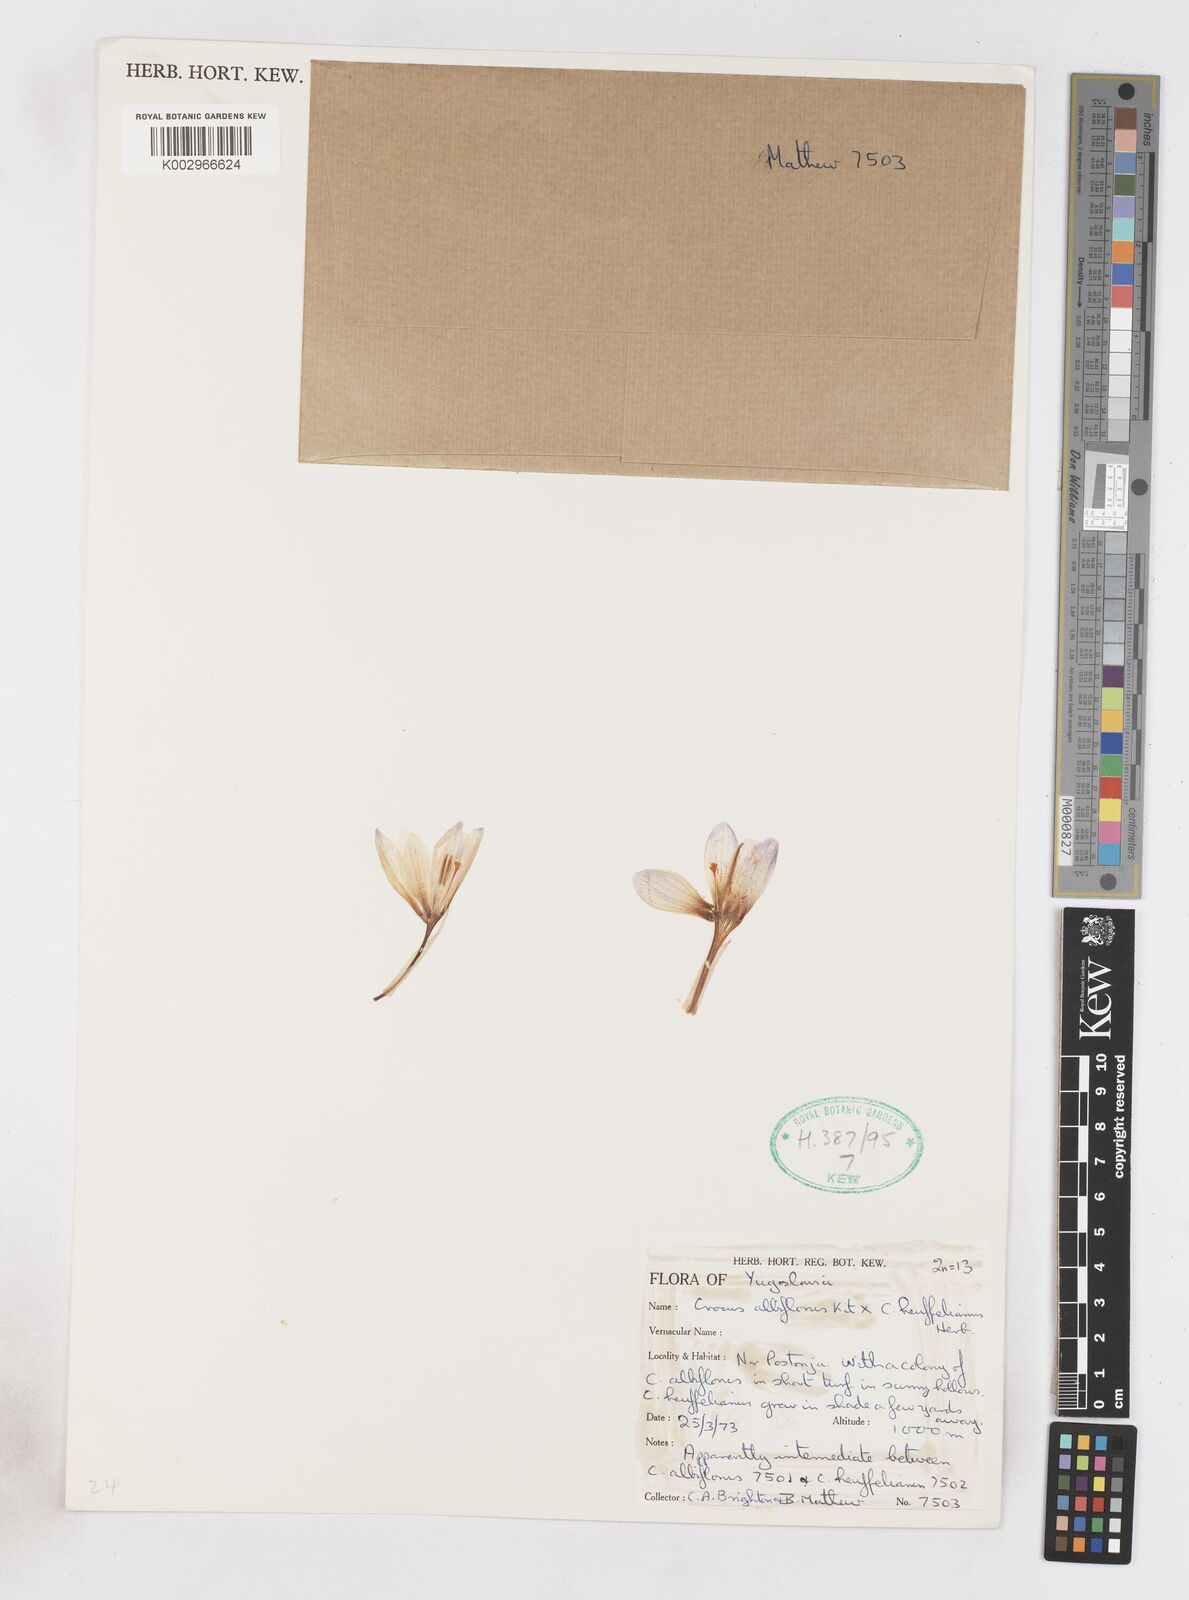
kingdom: Plantae
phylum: Tracheophyta
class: Liliopsida
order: Asparagales
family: Iridaceae
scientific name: Iridaceae
